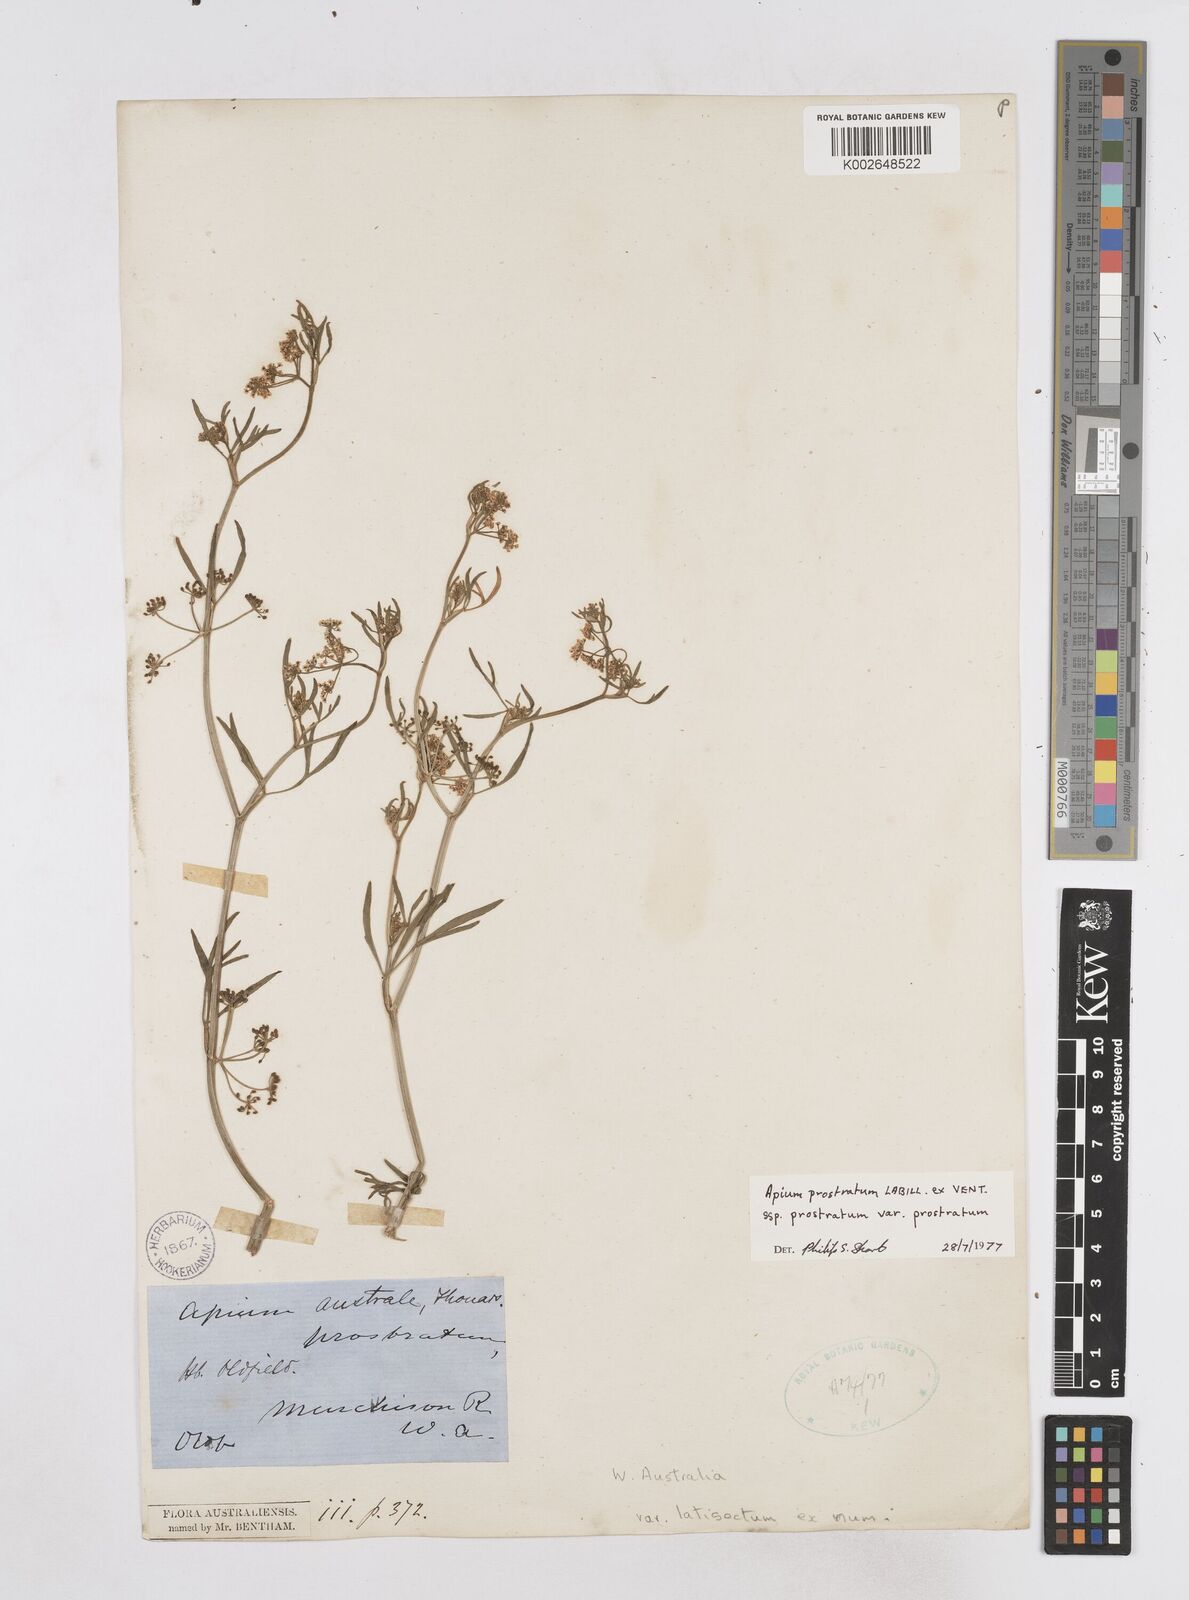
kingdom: Plantae
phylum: Tracheophyta
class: Magnoliopsida
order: Apiales
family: Apiaceae
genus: Apium
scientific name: Apium prostratum
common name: Prostrate marshwort
